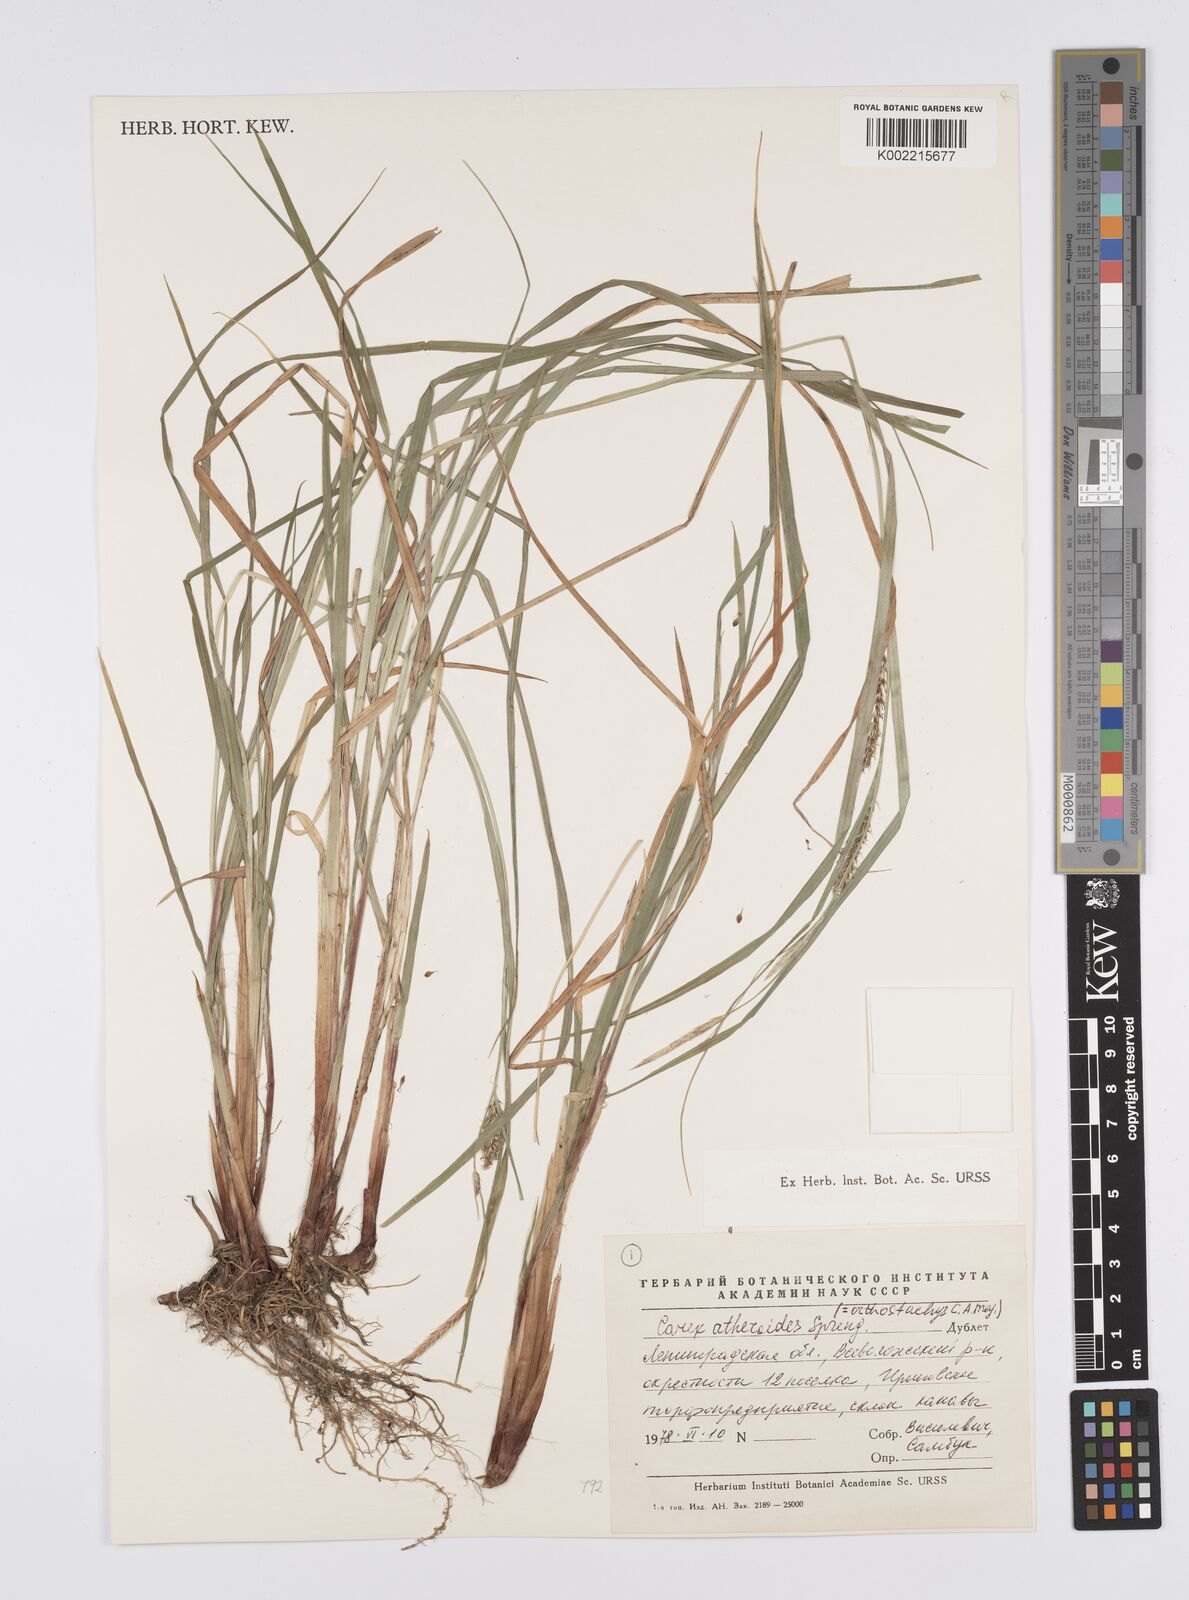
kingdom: Plantae
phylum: Tracheophyta
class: Liliopsida
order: Poales
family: Cyperaceae
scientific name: Cyperaceae
